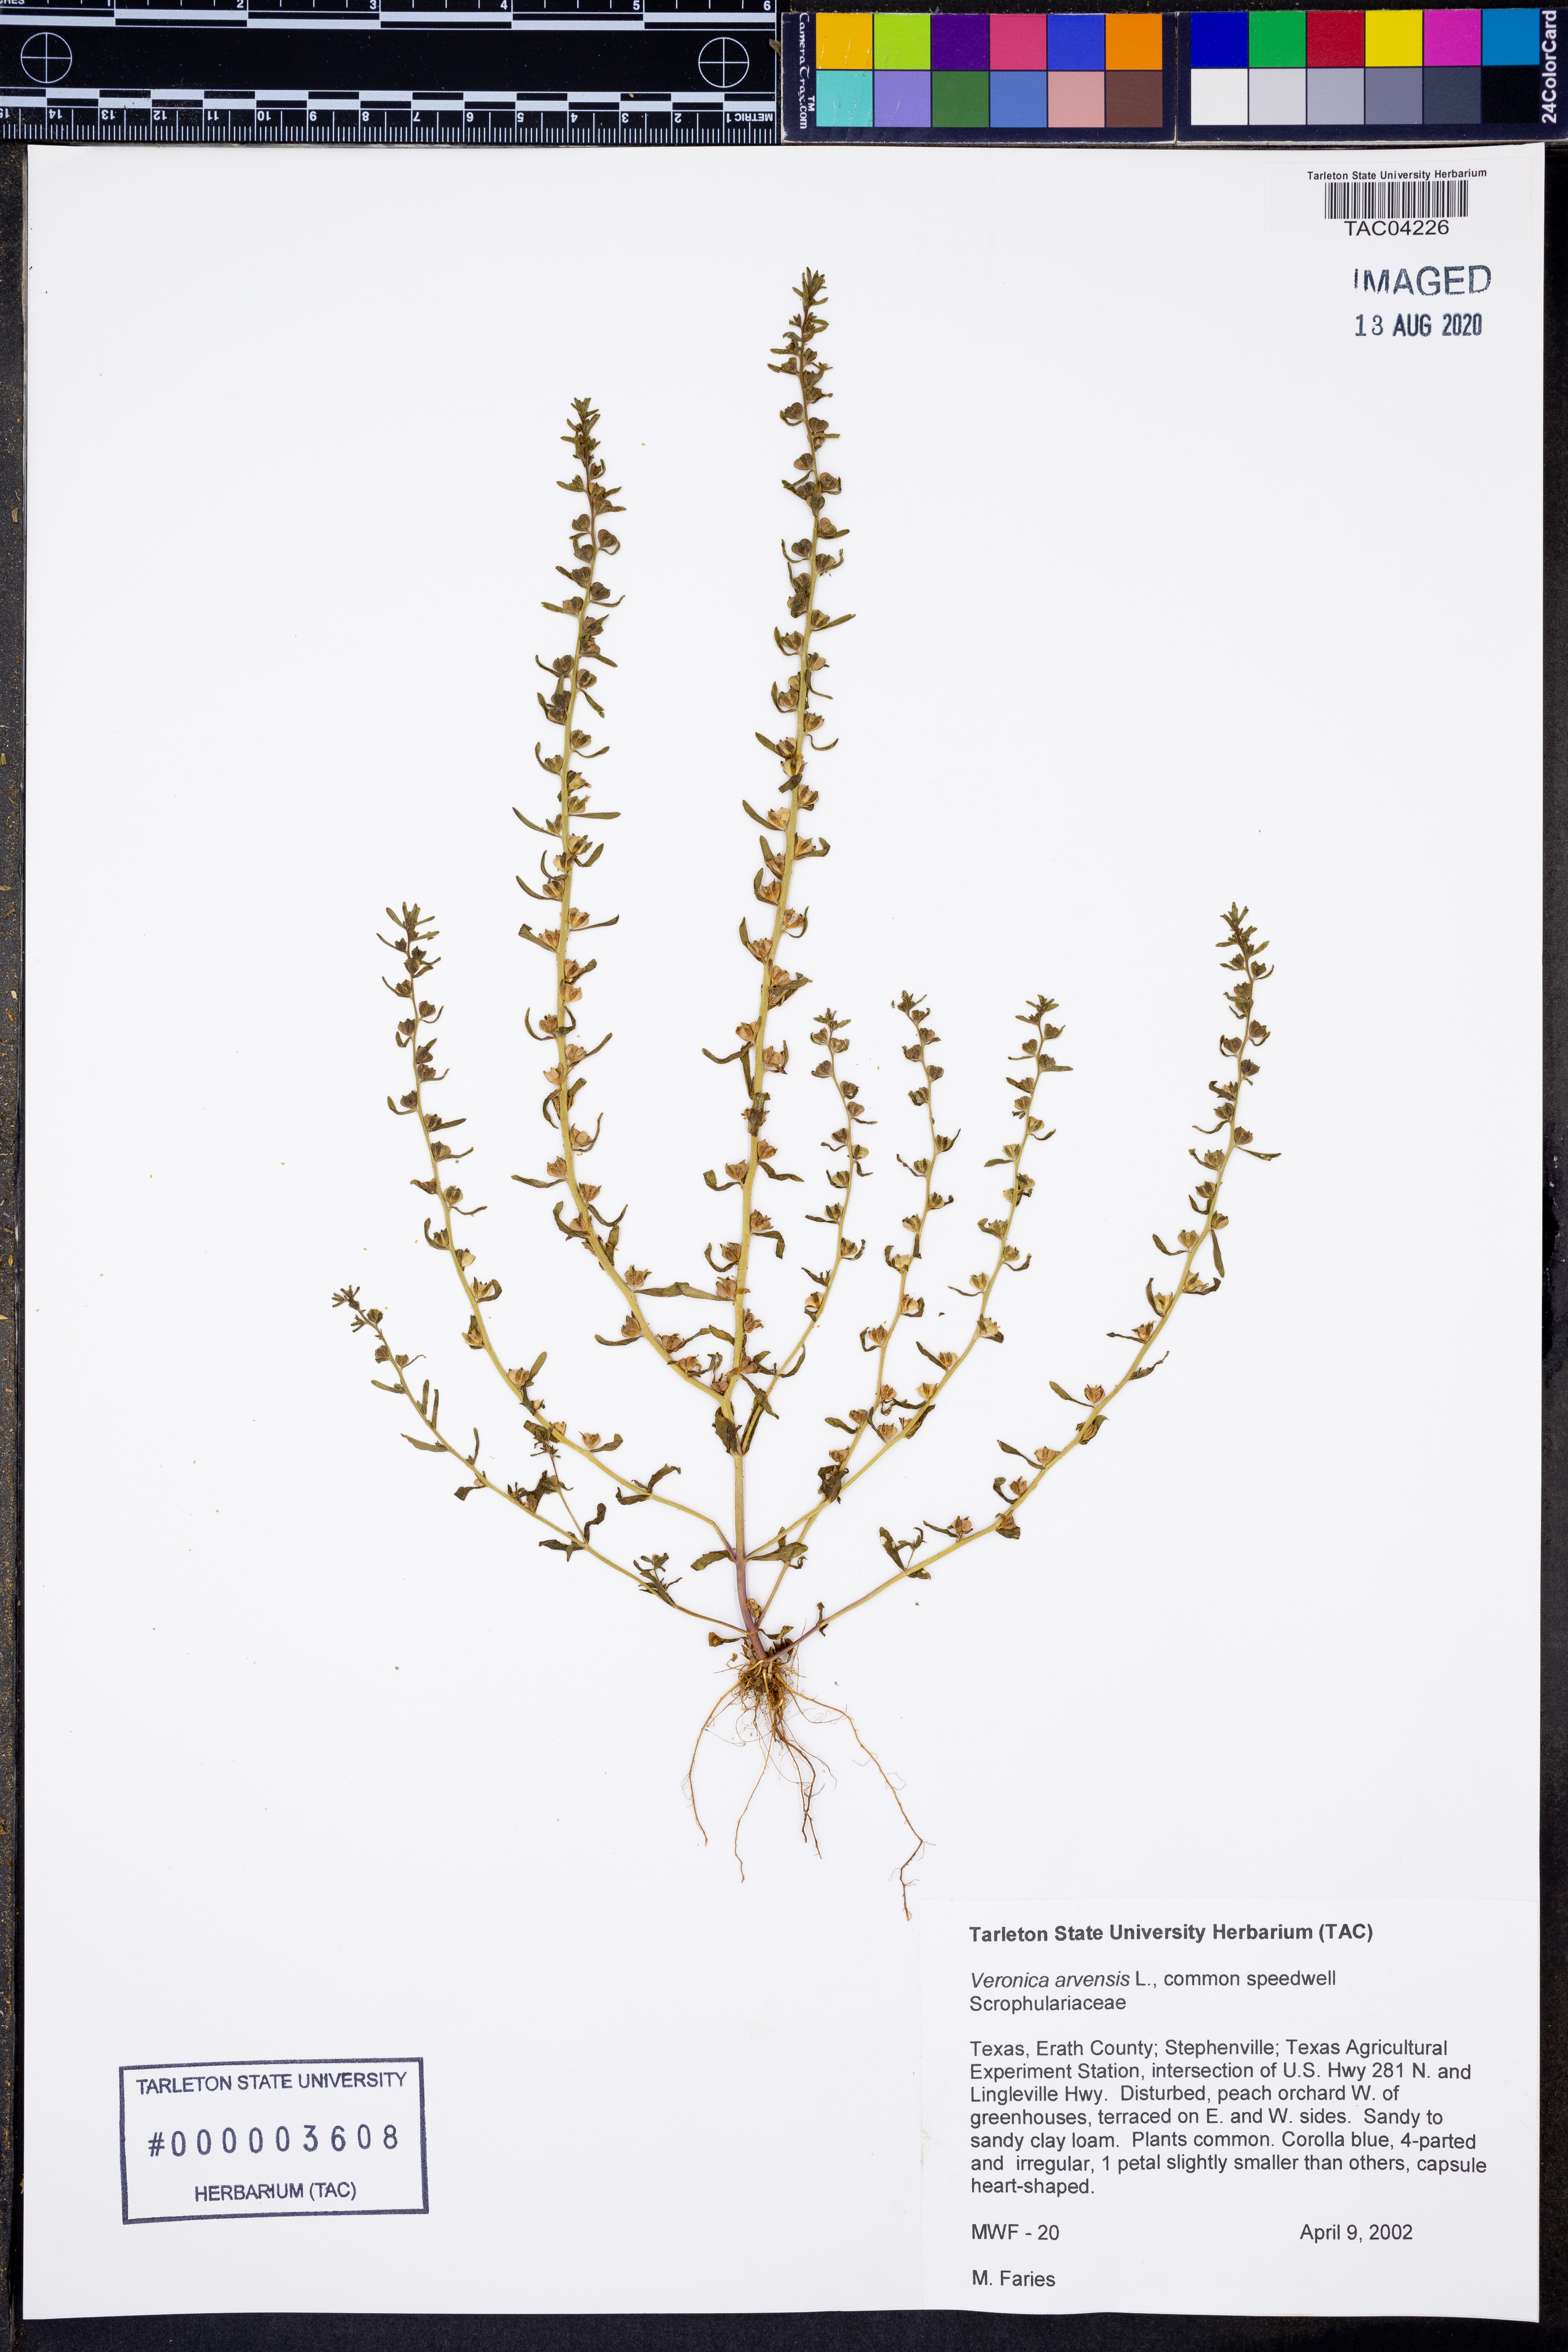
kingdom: Plantae
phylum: Tracheophyta
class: Magnoliopsida
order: Lamiales
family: Plantaginaceae
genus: Veronica
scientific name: Veronica arvensis
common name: Corn speedwell
